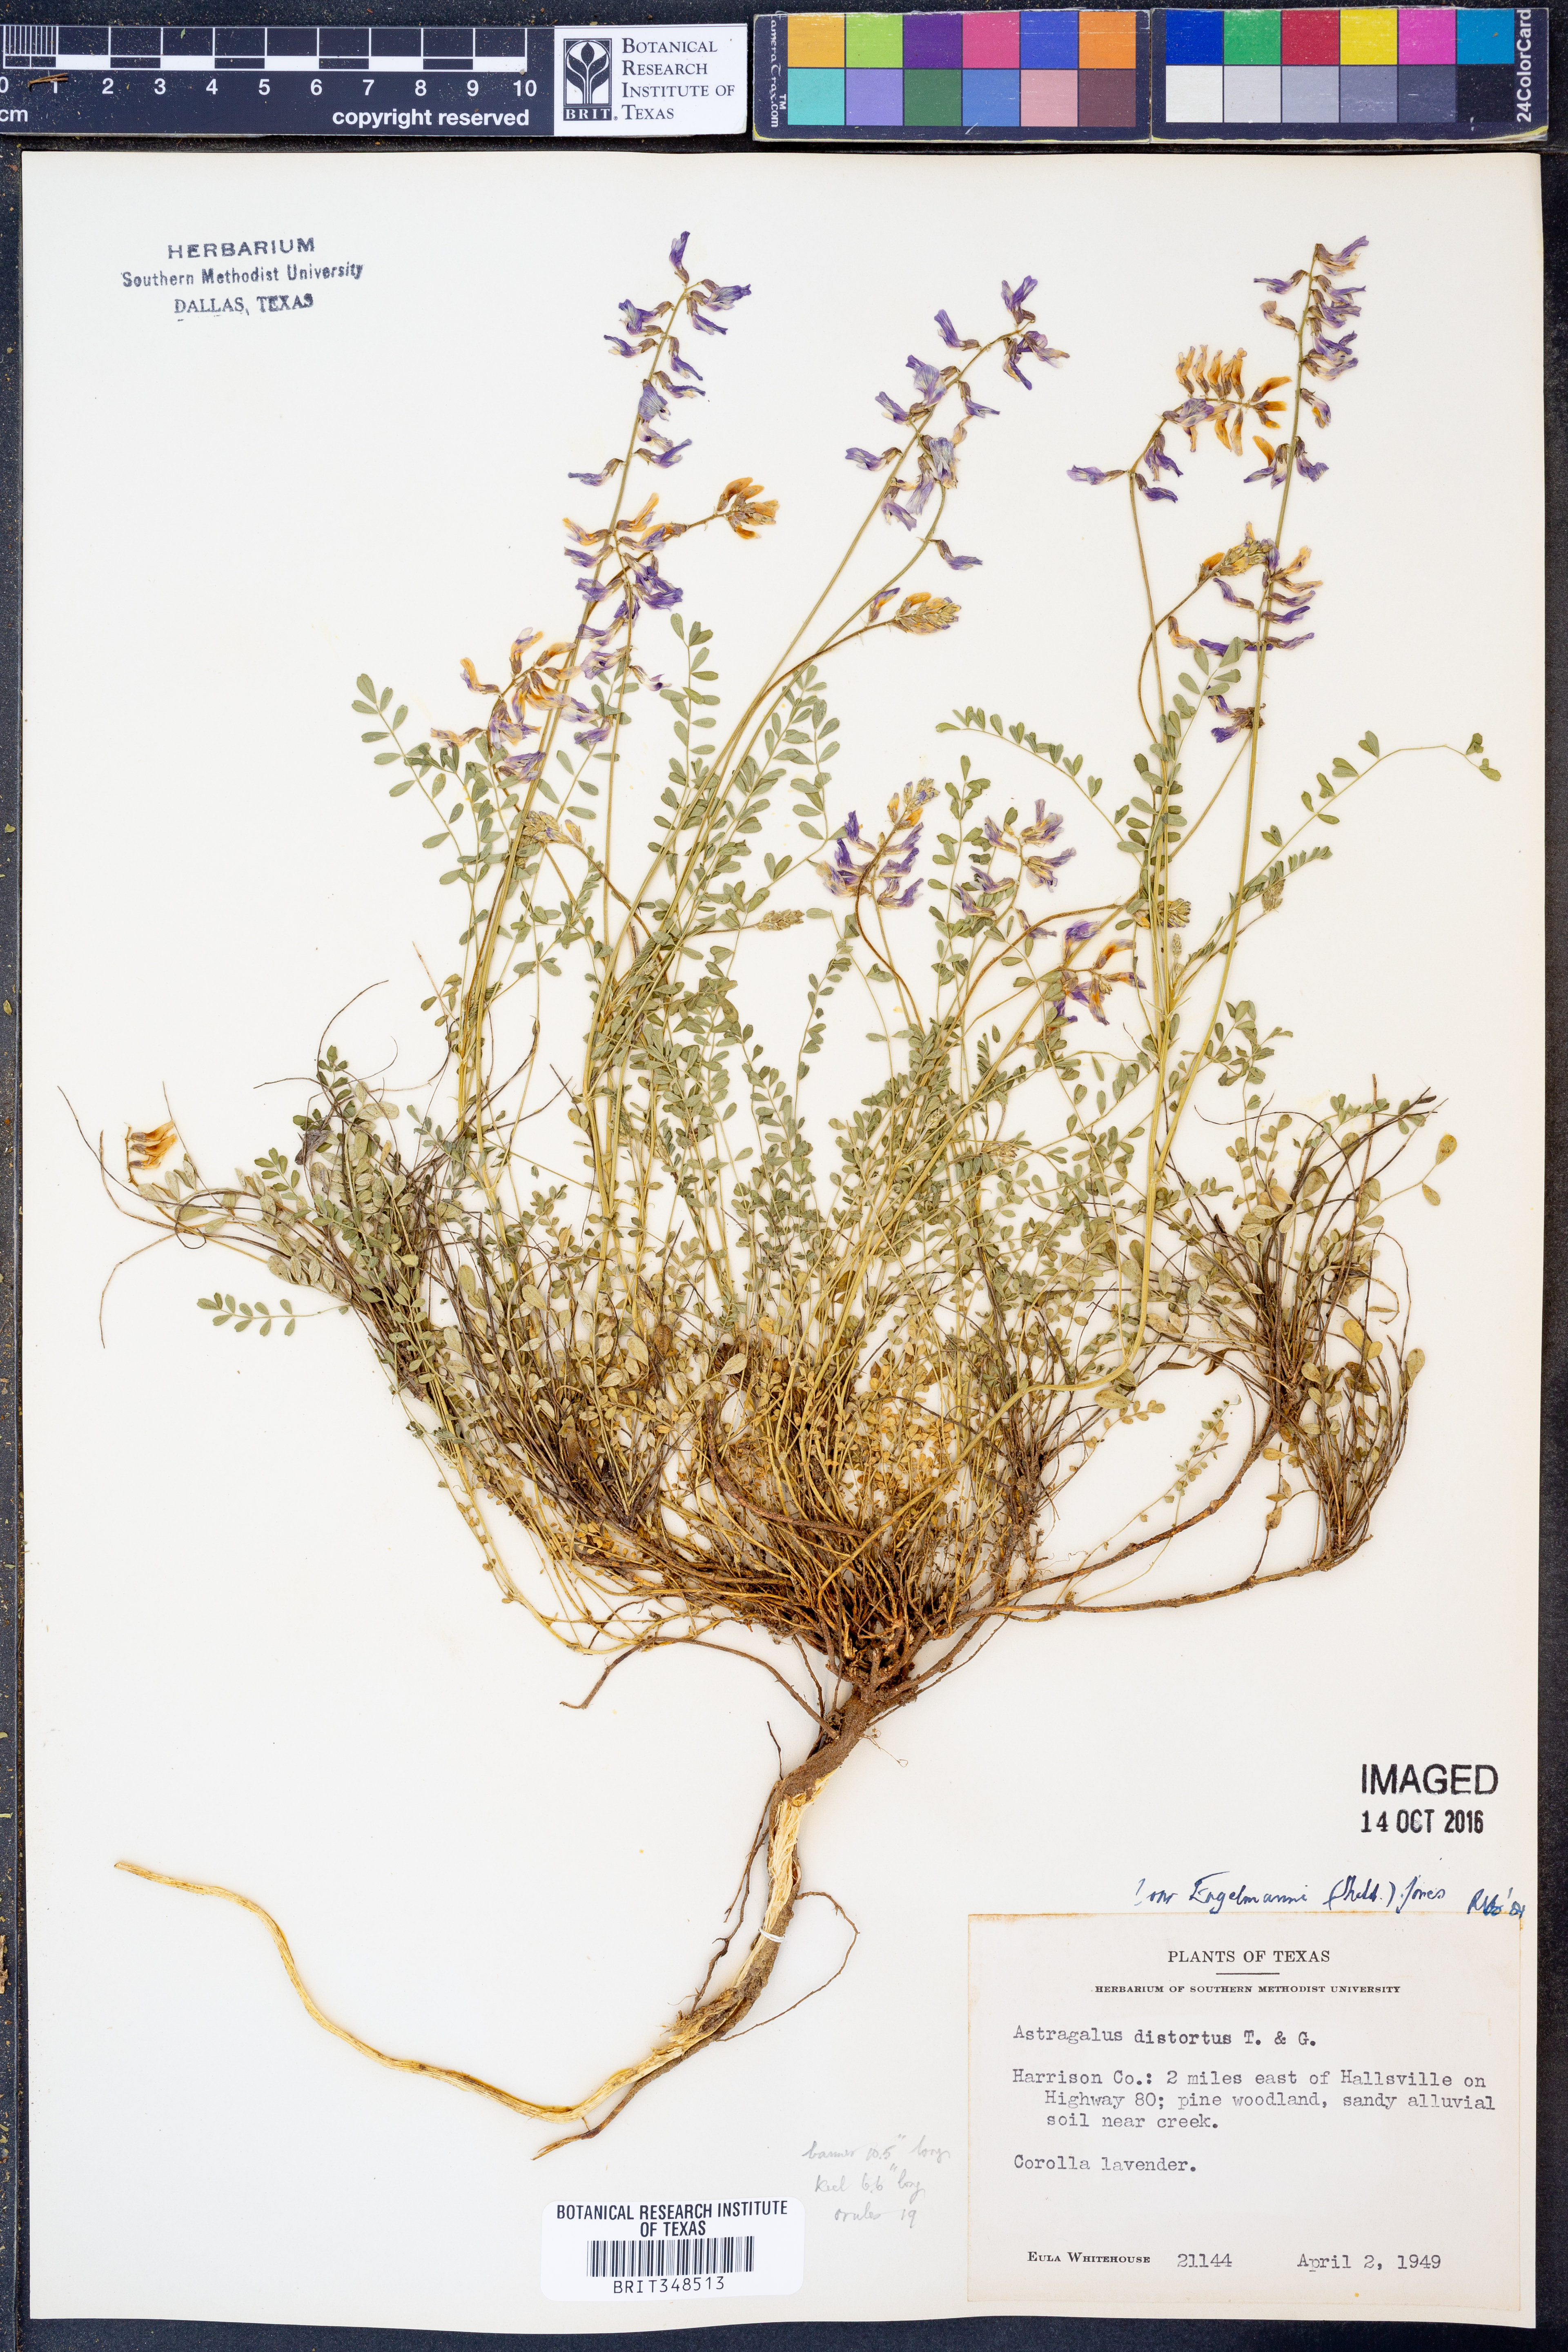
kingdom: Plantae
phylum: Tracheophyta
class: Magnoliopsida
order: Fabales
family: Fabaceae
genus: Astragalus
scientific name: Astragalus distortus
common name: Ozark milk-vetch
